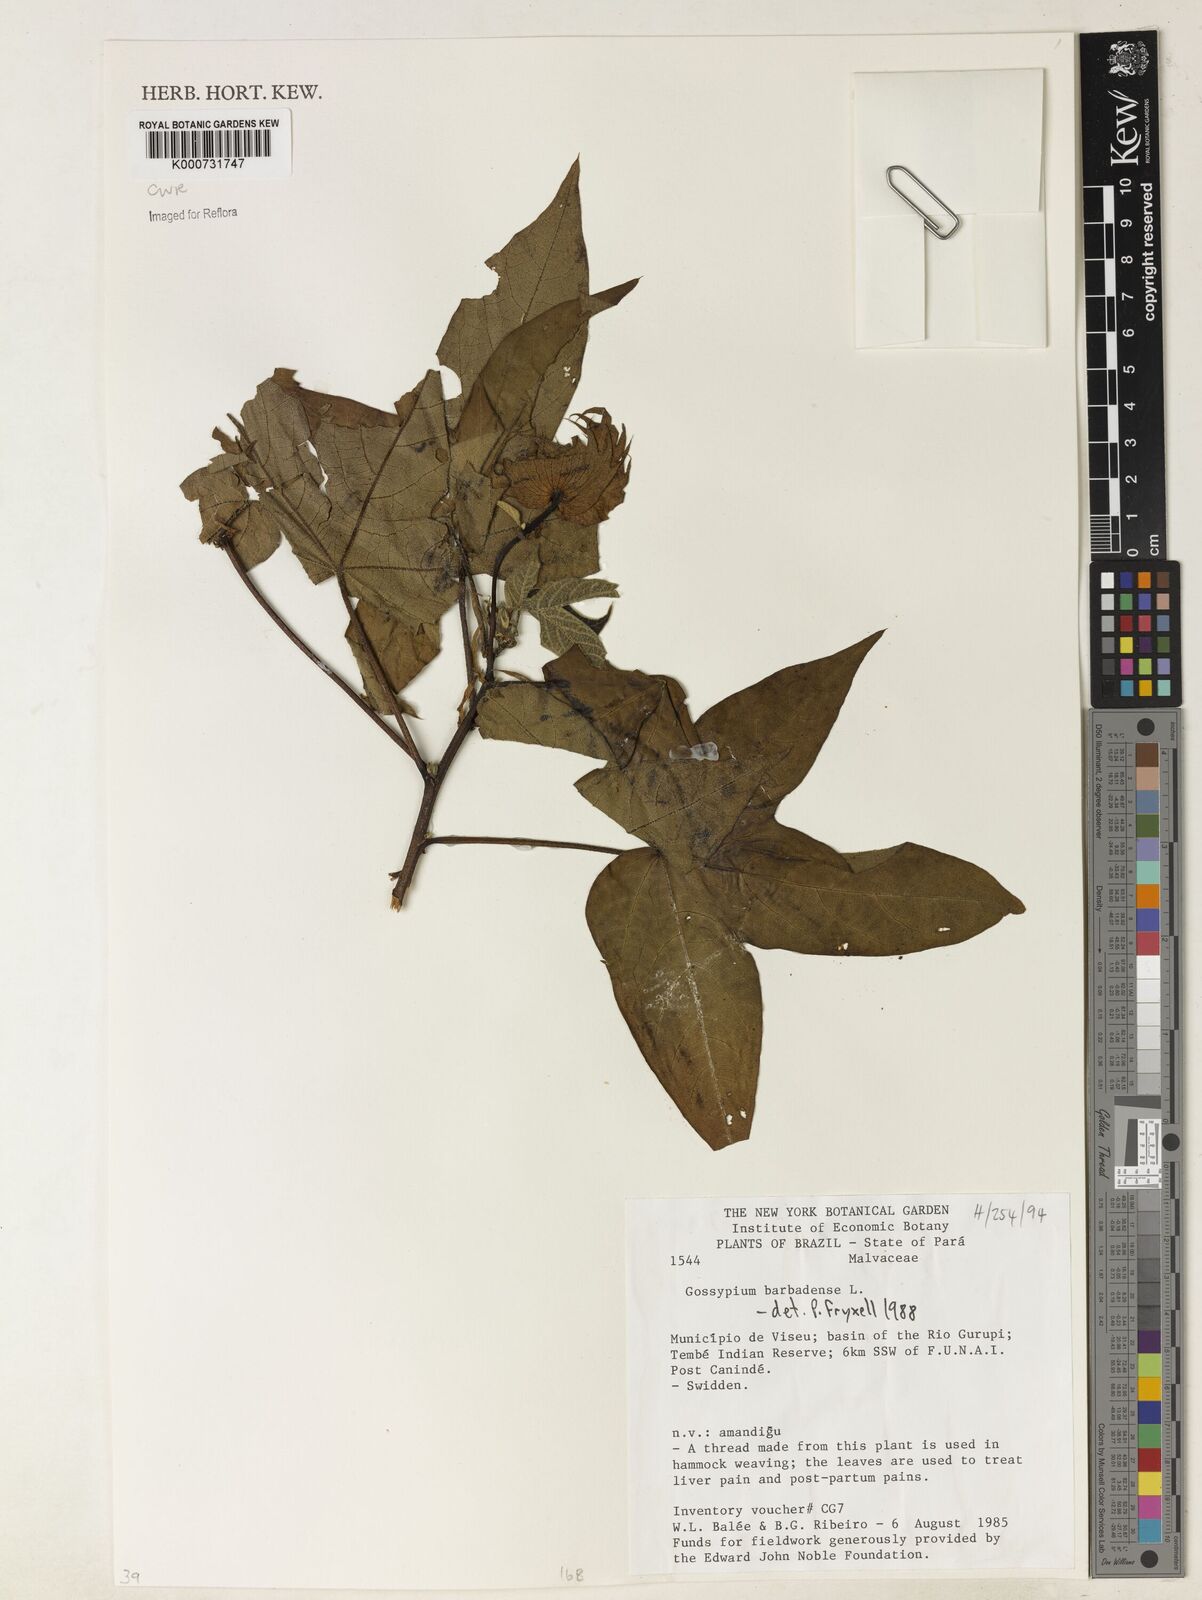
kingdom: Plantae
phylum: Tracheophyta
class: Magnoliopsida
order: Malvales
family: Malvaceae
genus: Gossypium
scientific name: Gossypium barbadense
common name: Creole cotton
